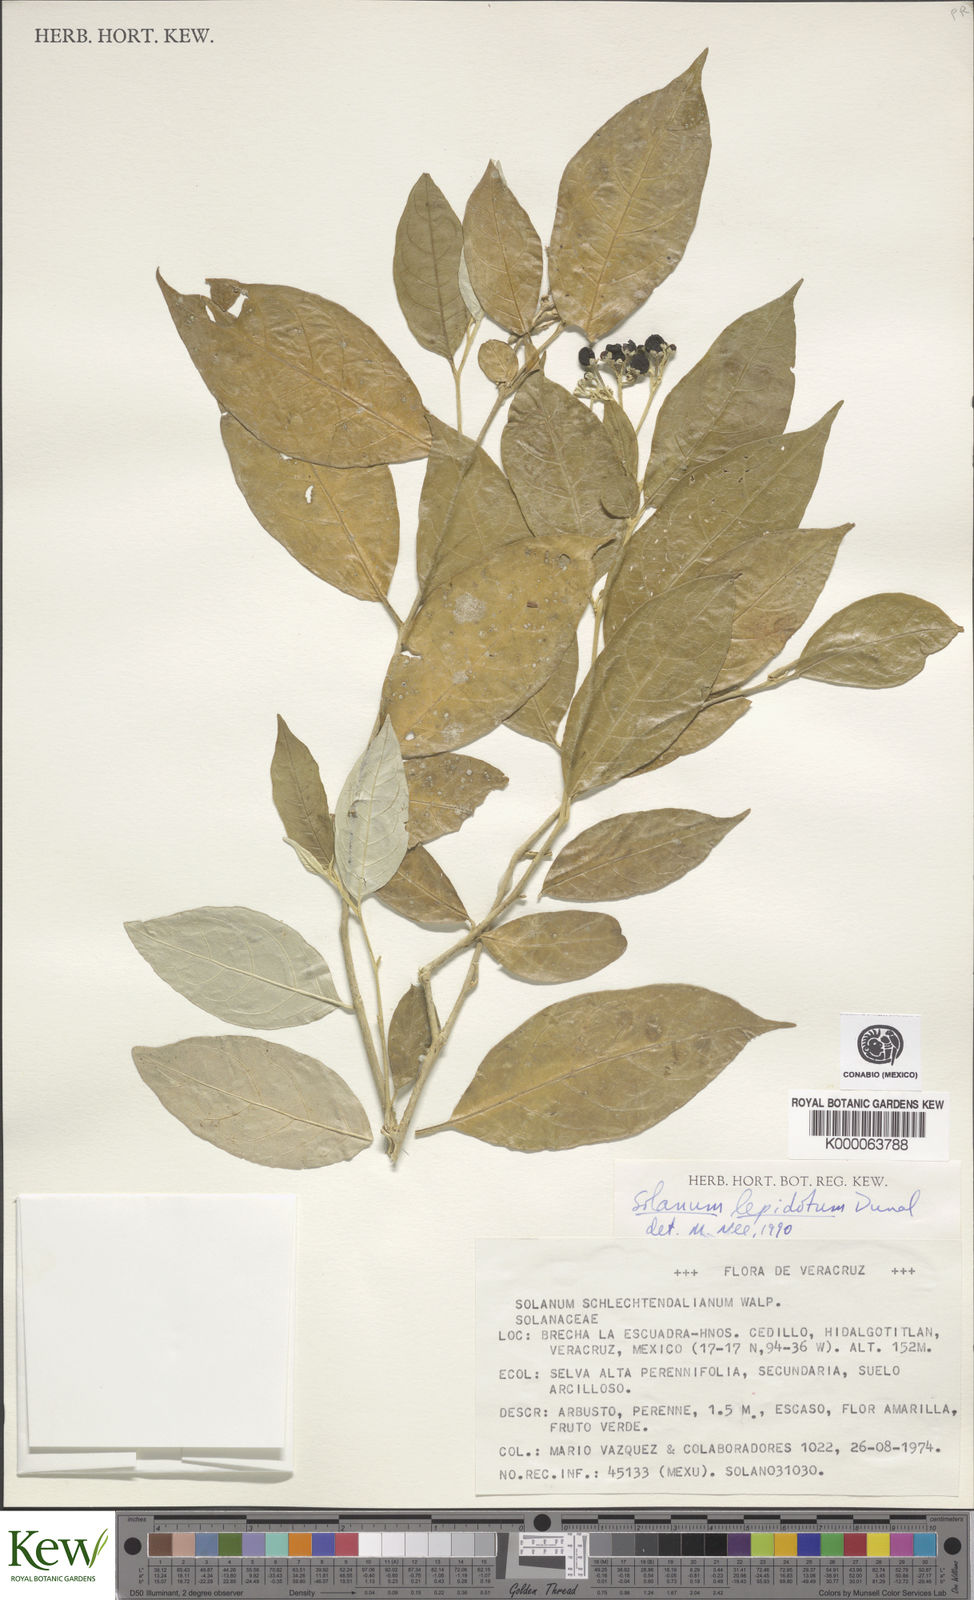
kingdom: Plantae
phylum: Tracheophyta
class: Magnoliopsida
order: Solanales
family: Solanaceae
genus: Solanum
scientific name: Solanum lepidotum
